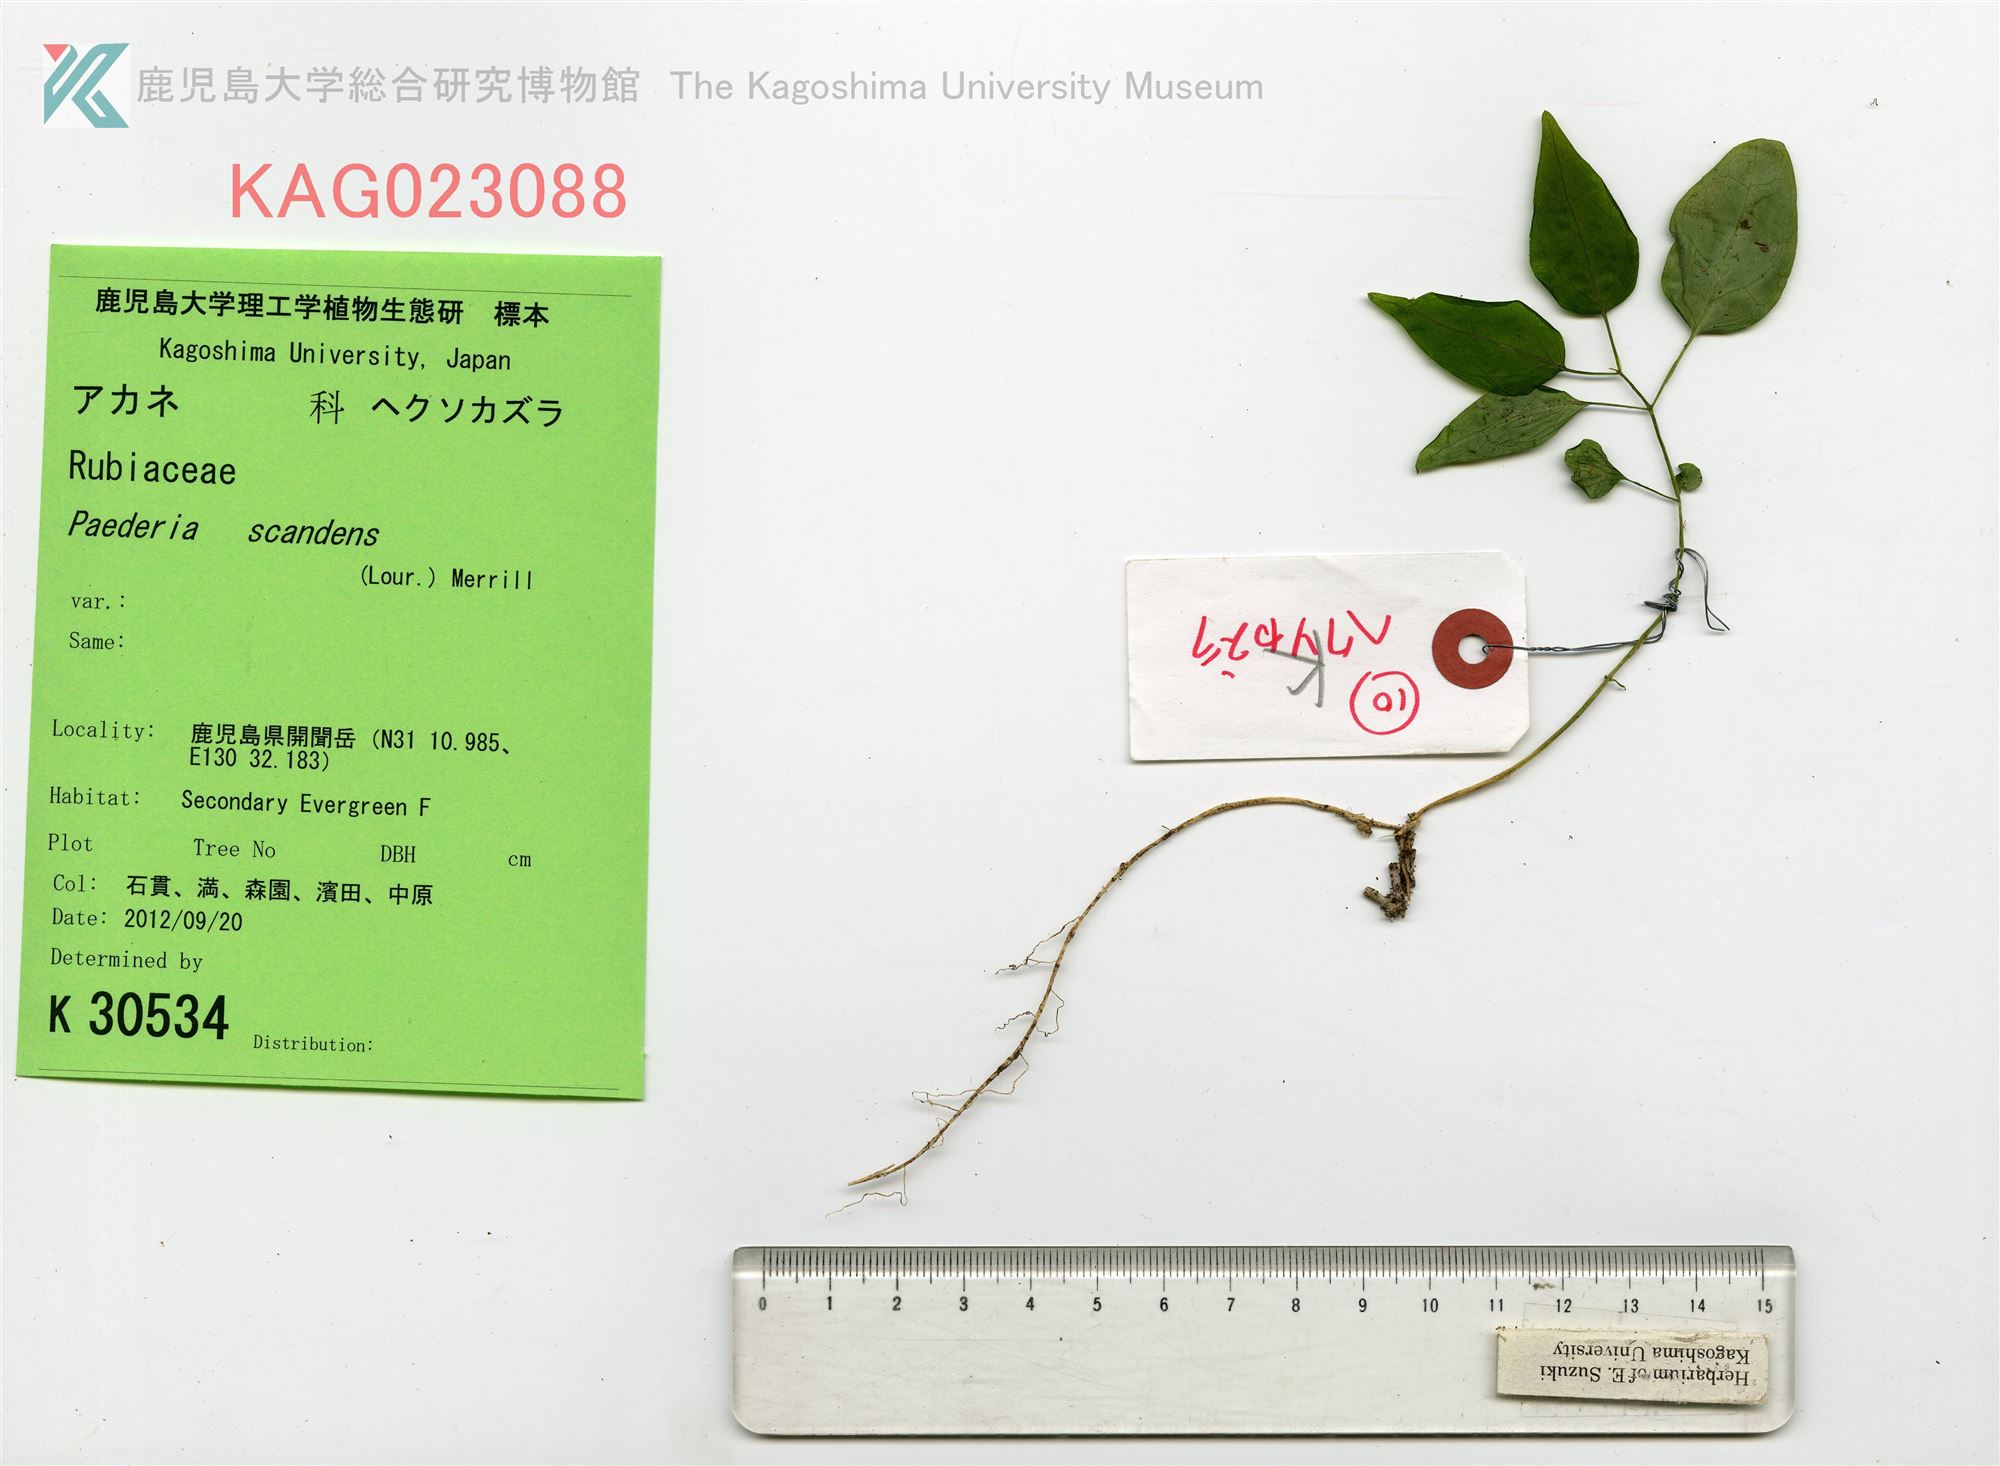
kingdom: Plantae
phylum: Tracheophyta
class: Magnoliopsida
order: Gentianales
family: Rubiaceae
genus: Paederia
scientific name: Paederia foetida
